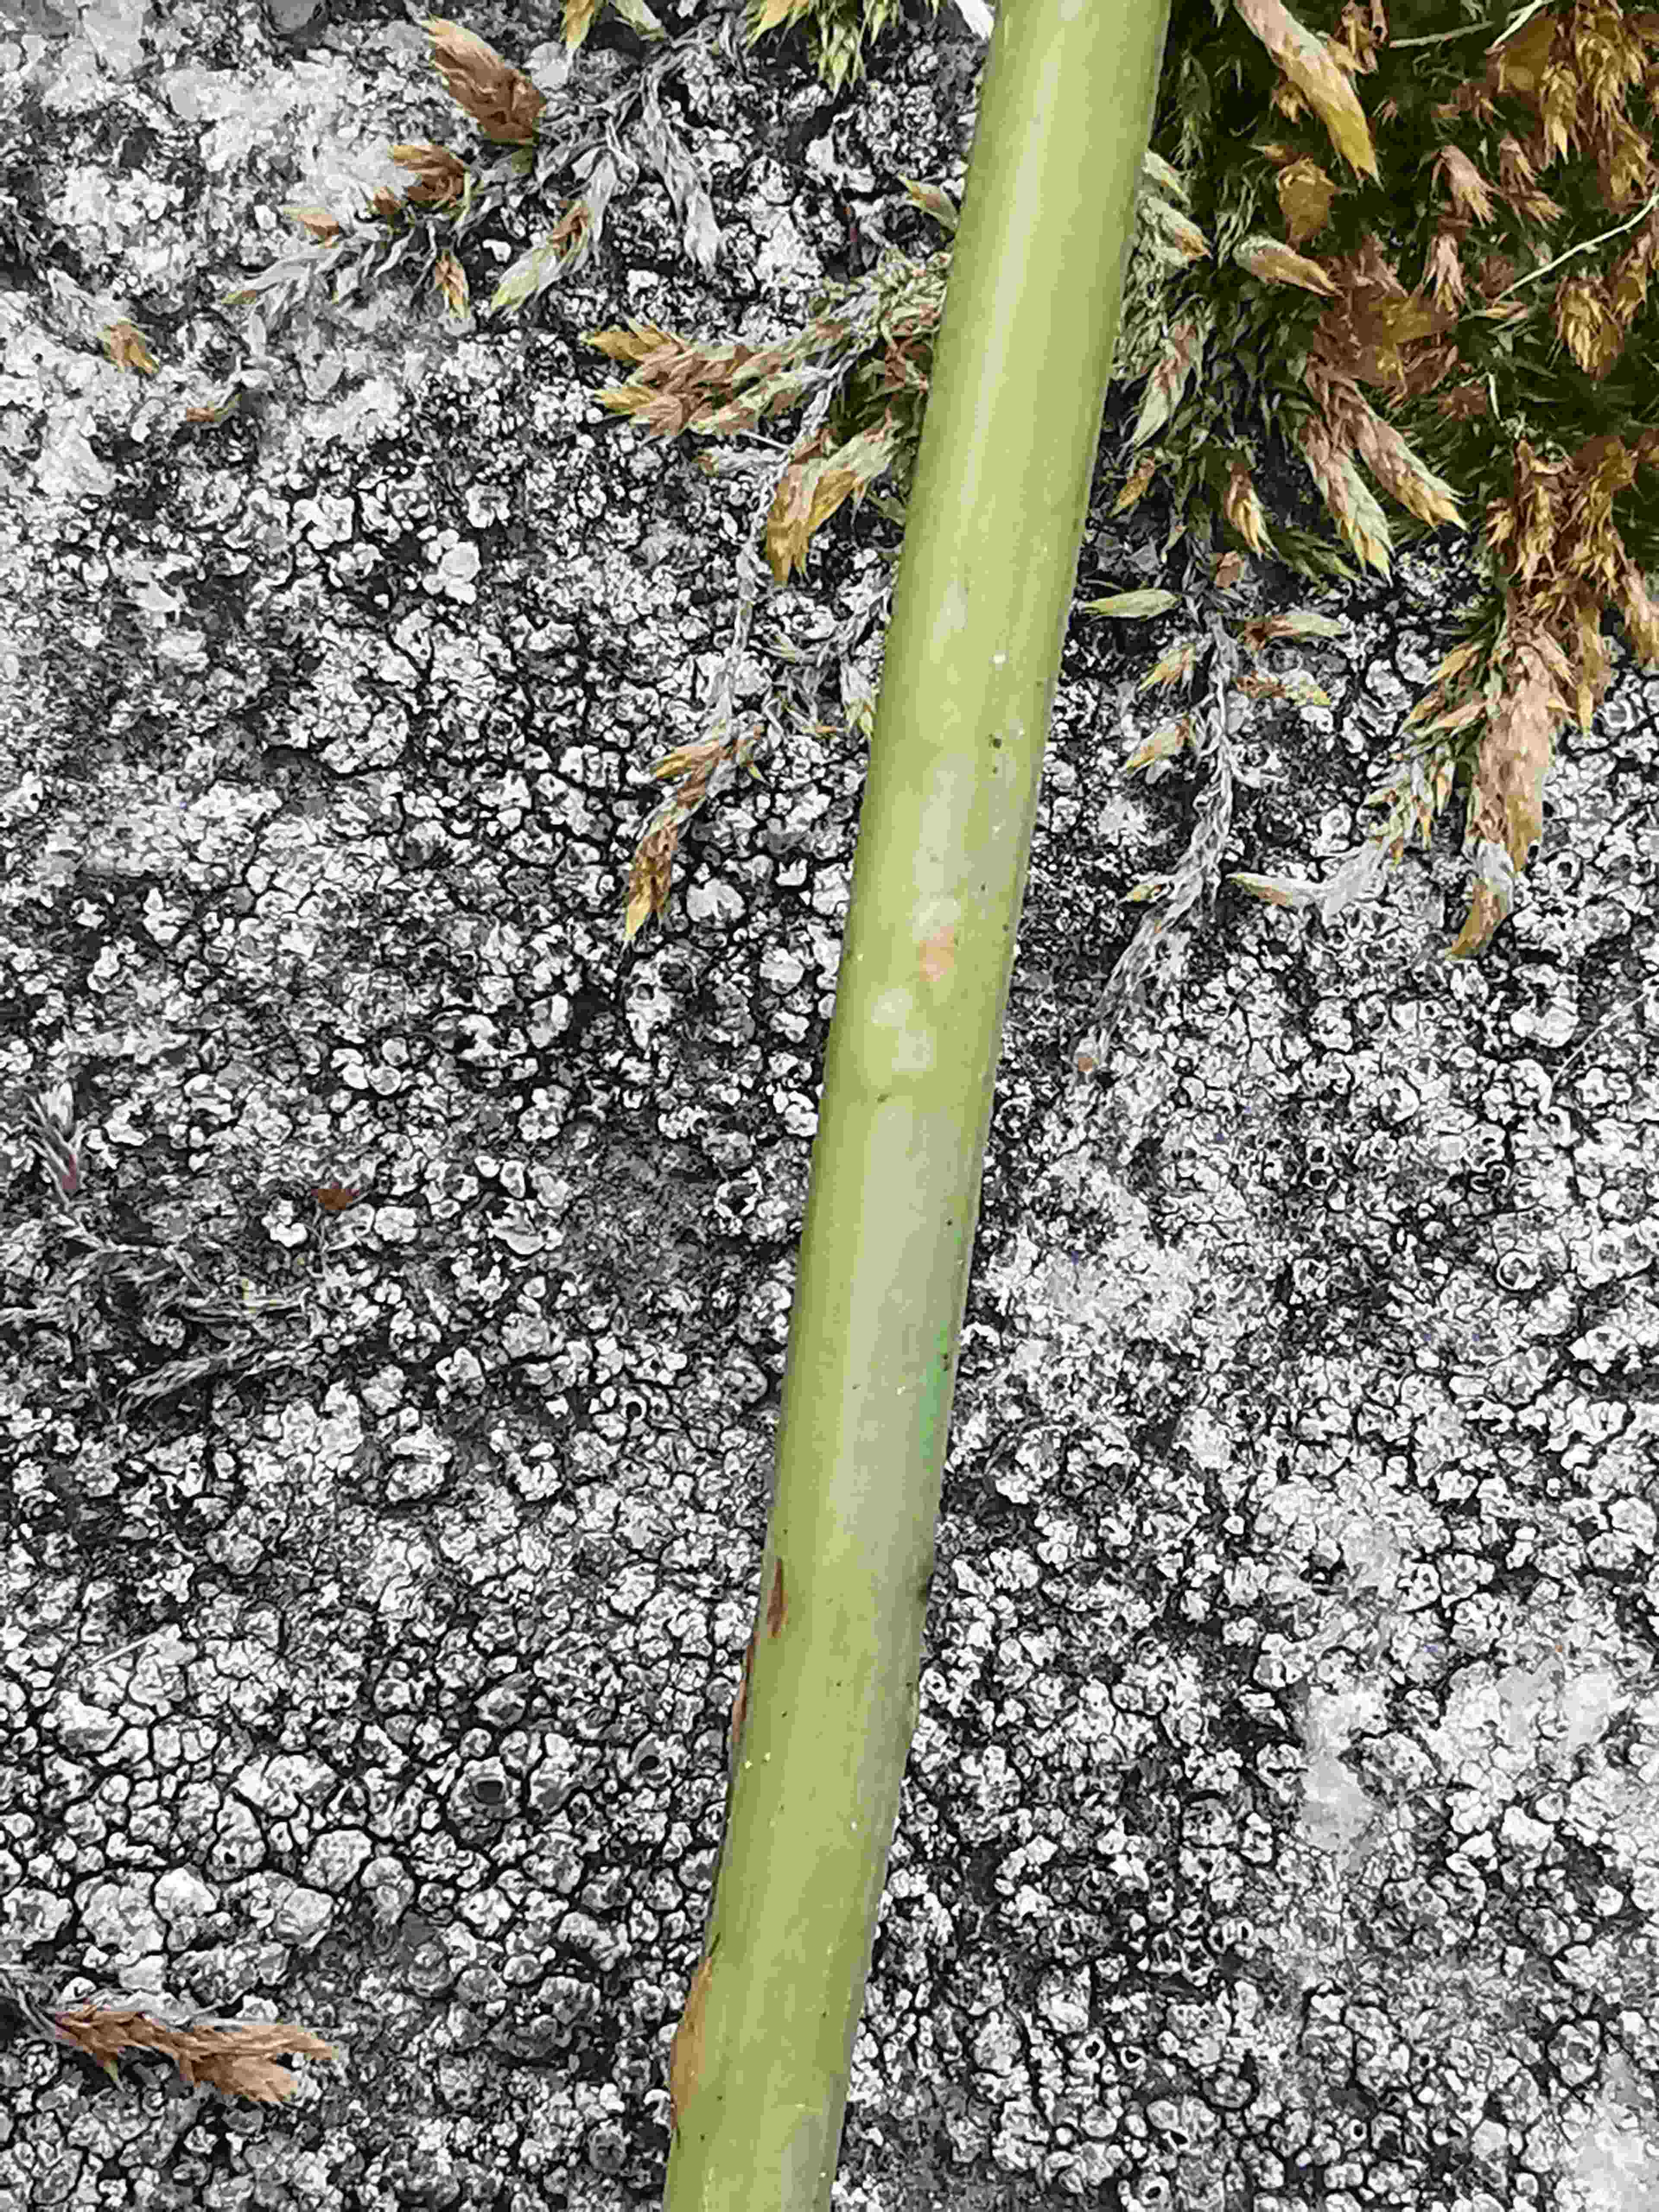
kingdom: Fungi
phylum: Ascomycota
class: Taphrinomycetes
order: Taphrinales
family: Taphrinaceae
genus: Protomyces
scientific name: Protomyces macrosporus
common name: skvalderkål-vablesæk
